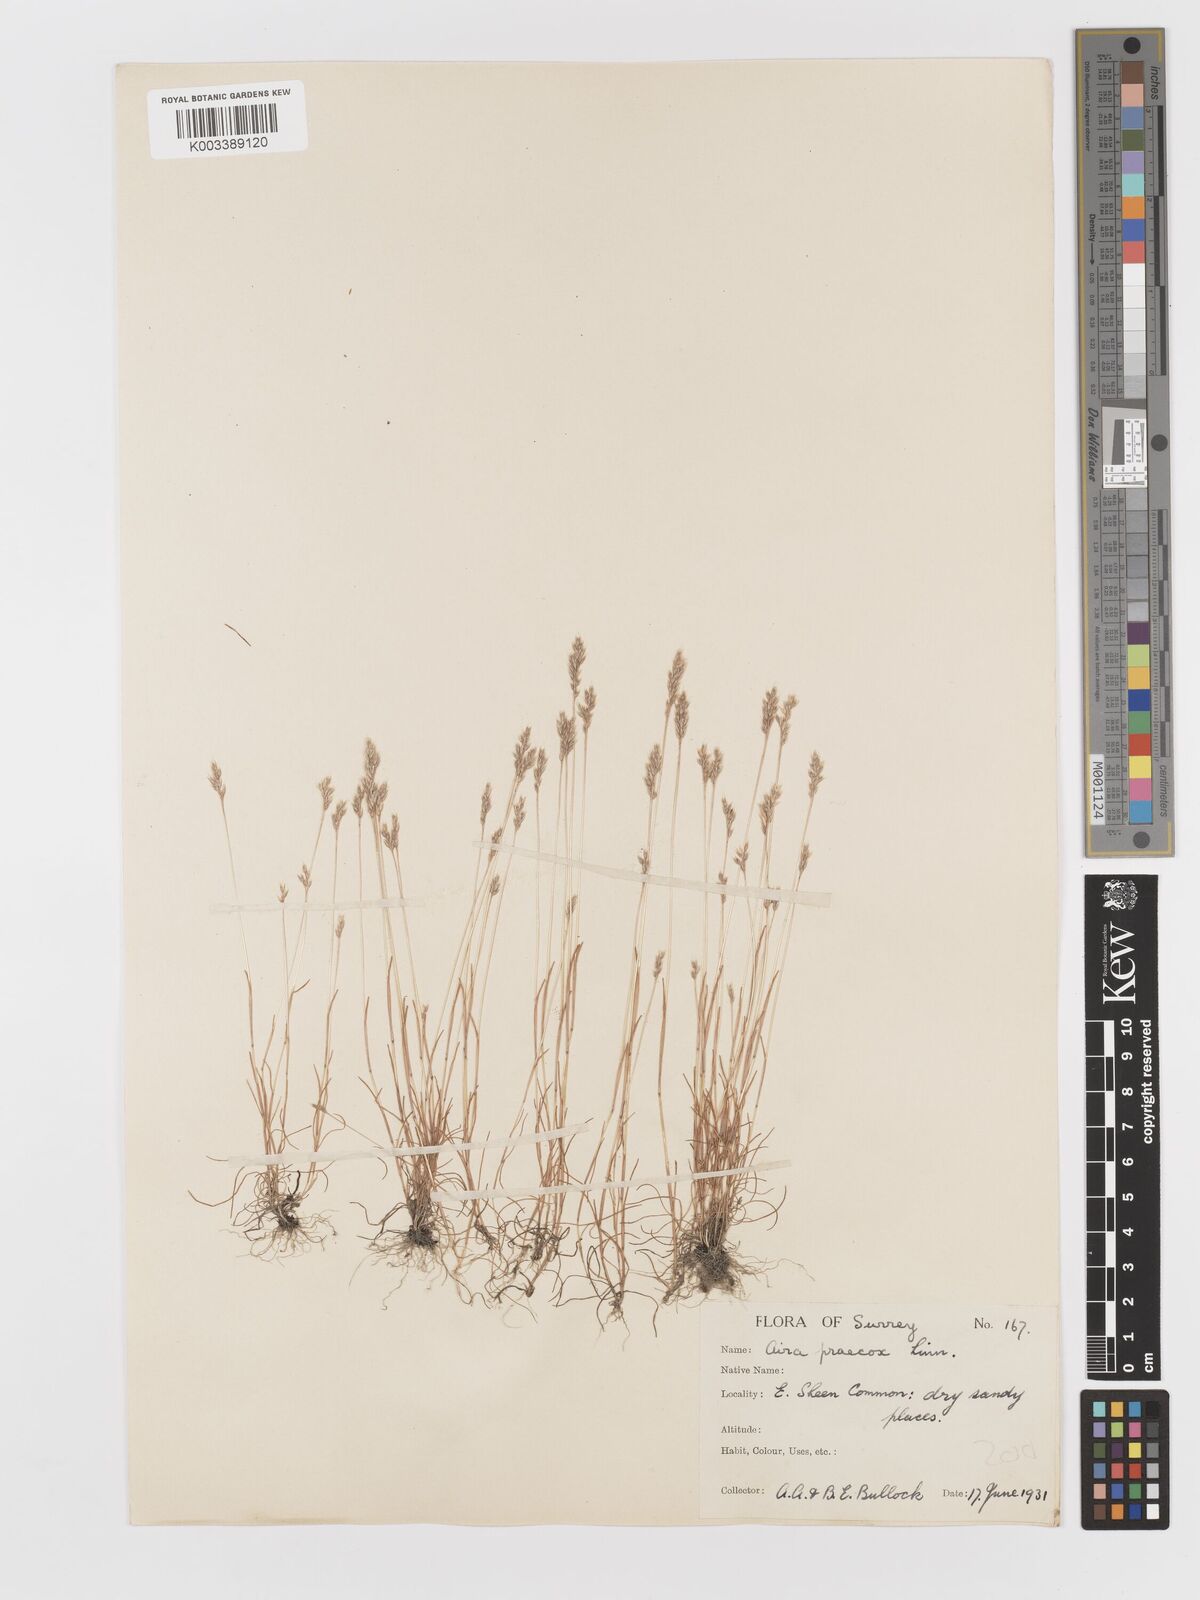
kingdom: Plantae
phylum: Tracheophyta
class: Liliopsida
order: Poales
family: Poaceae
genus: Aira
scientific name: Aira praecox
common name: Early hair-grass
